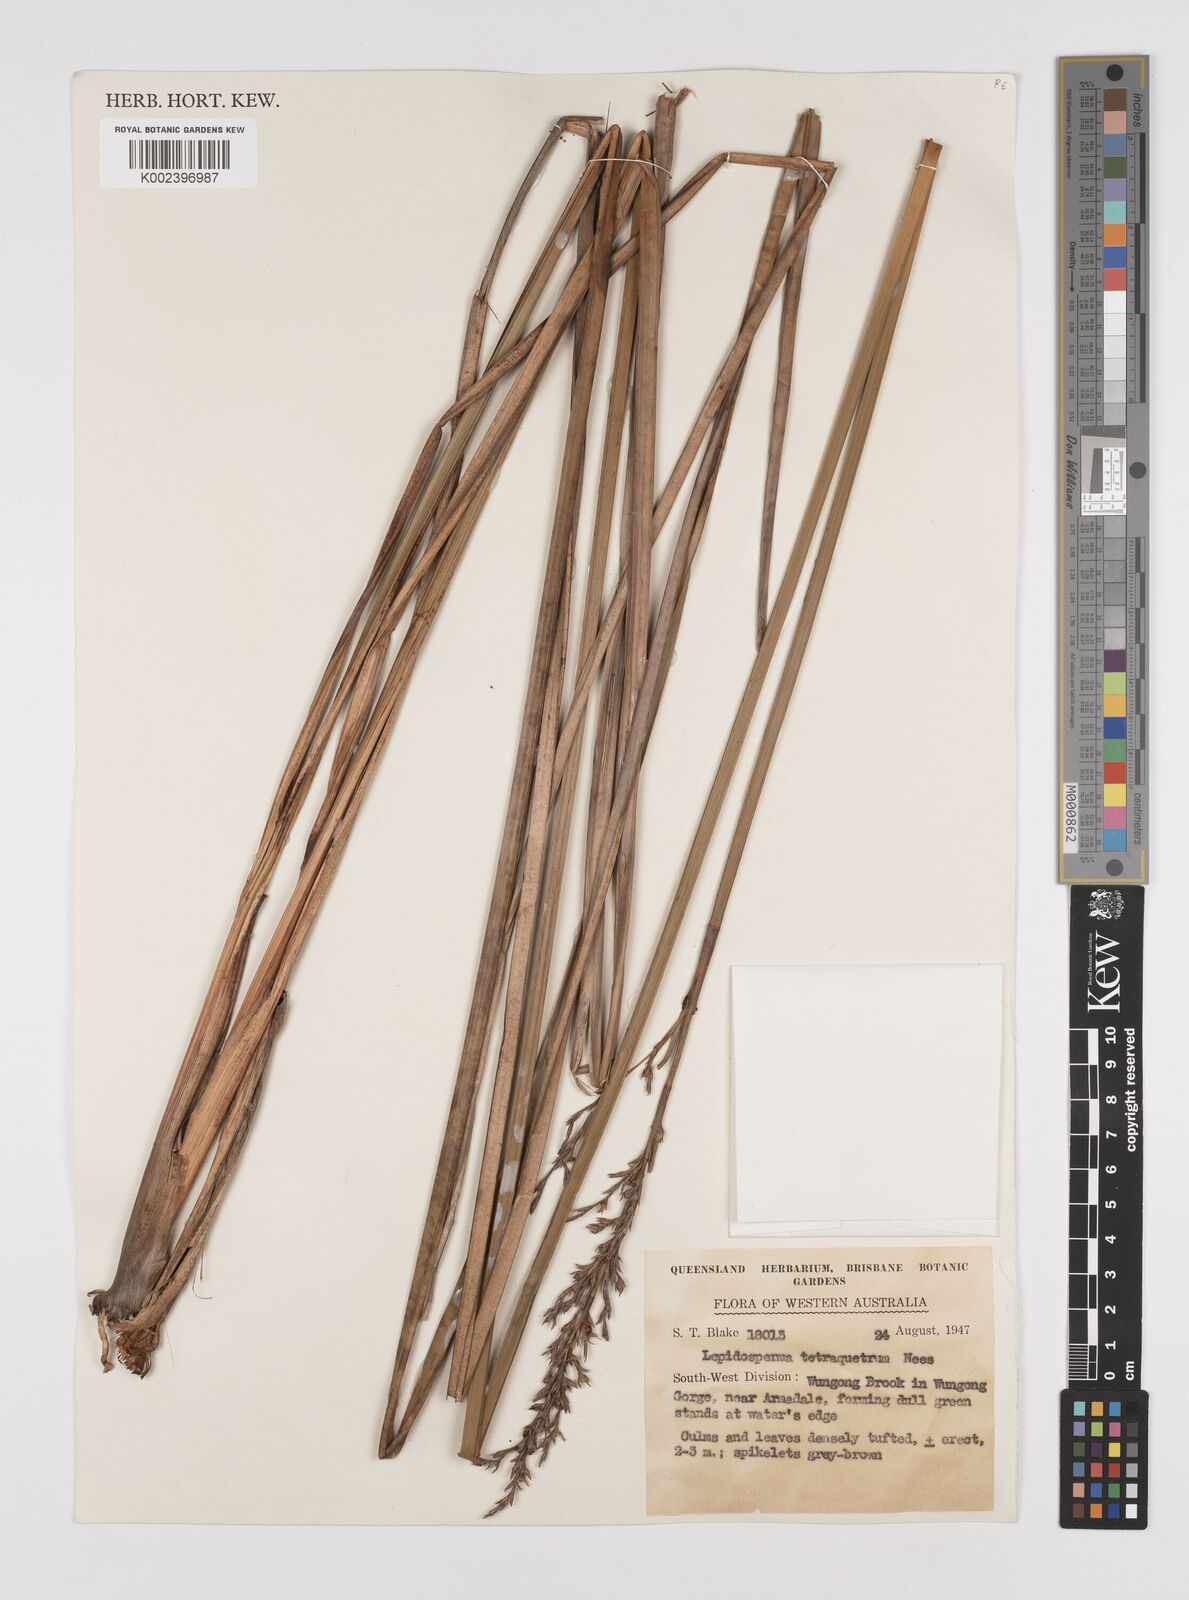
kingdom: Plantae
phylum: Tracheophyta
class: Liliopsida
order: Poales
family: Cyperaceae
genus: Lepidosperma
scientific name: Lepidosperma tetraquetrum
